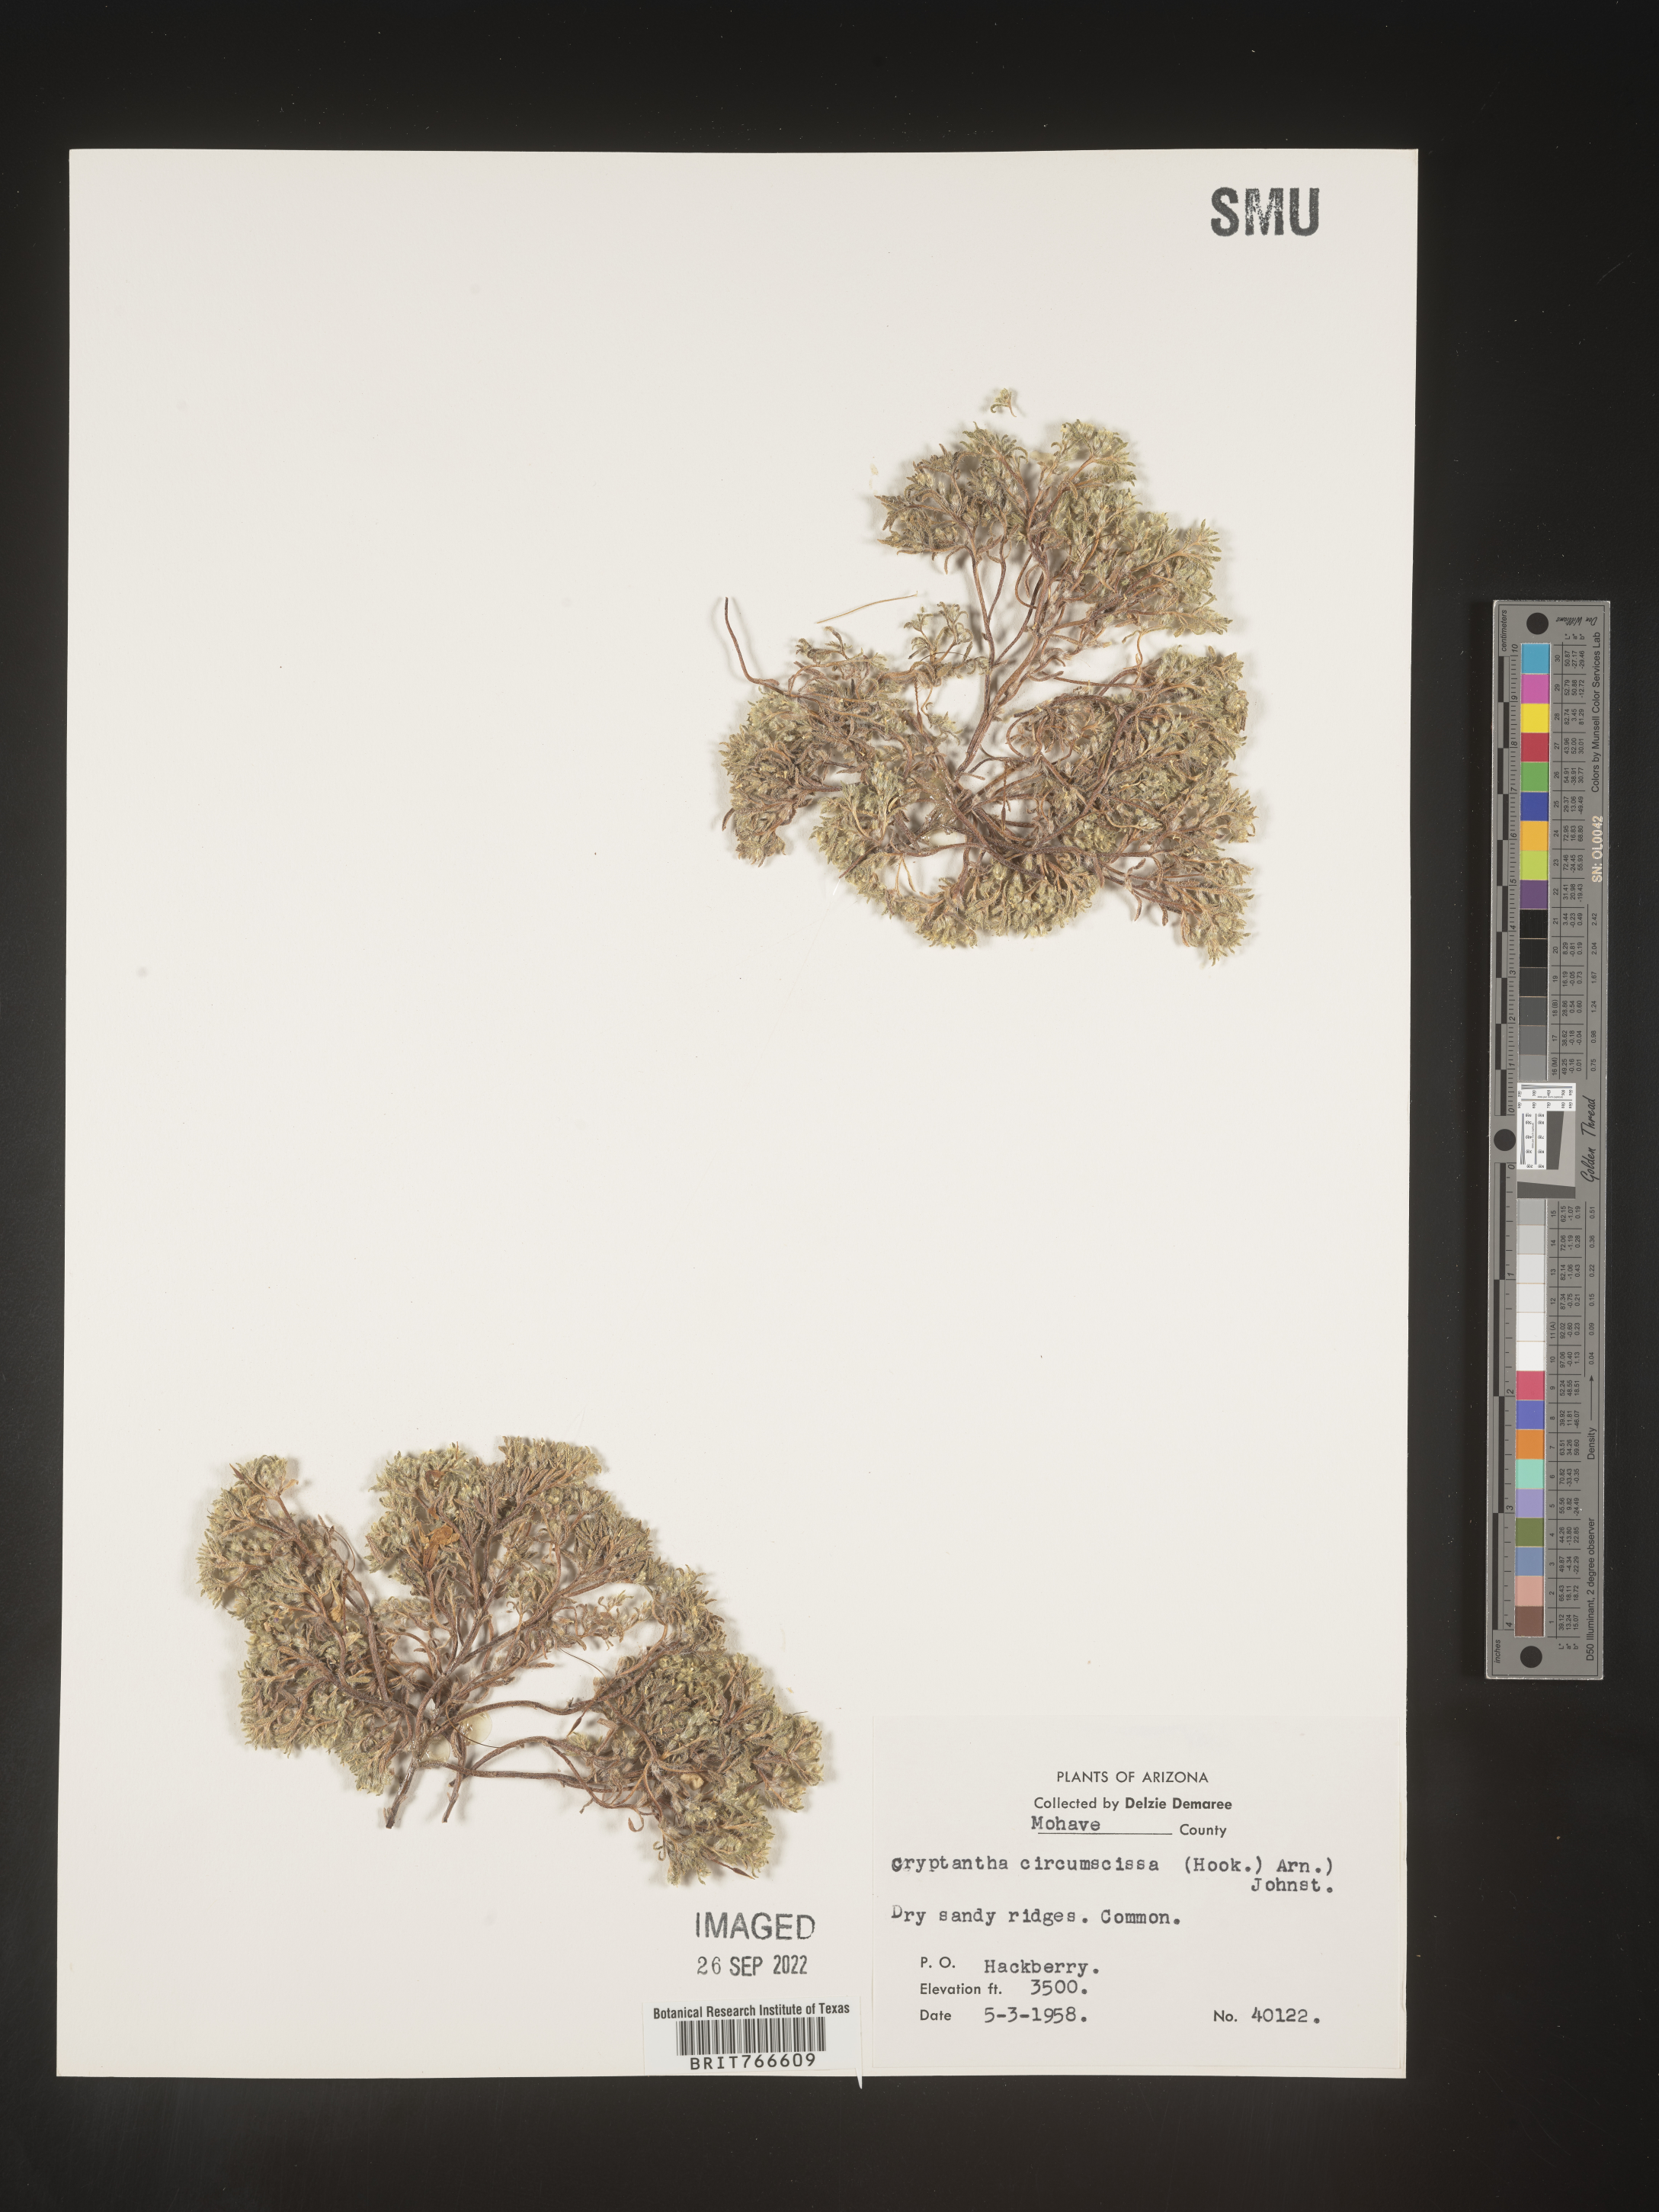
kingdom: Plantae
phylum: Tracheophyta
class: Magnoliopsida
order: Boraginales
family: Boraginaceae
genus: Cryptantha
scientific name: Cryptantha
